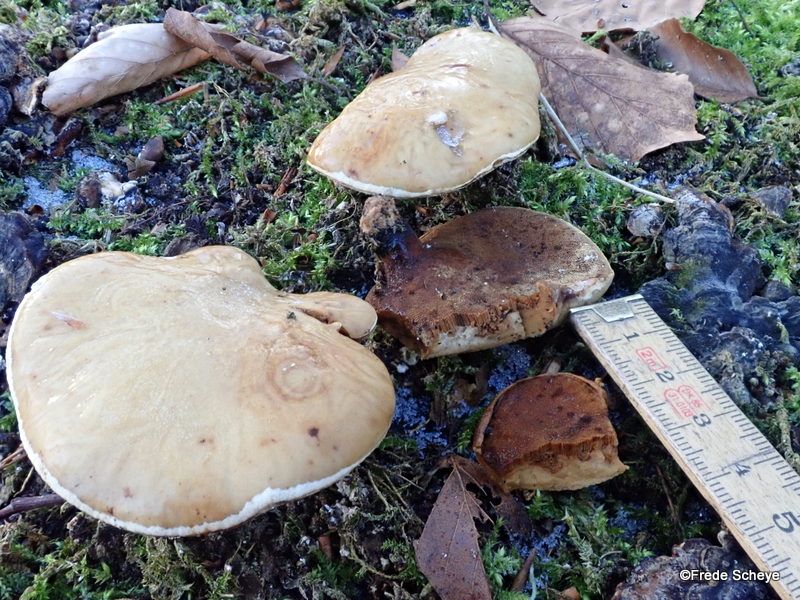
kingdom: Fungi
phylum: Basidiomycota
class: Agaricomycetes
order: Polyporales
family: Polyporaceae
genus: Cerioporus
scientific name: Cerioporus varius
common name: foranderlig stilkporesvamp
